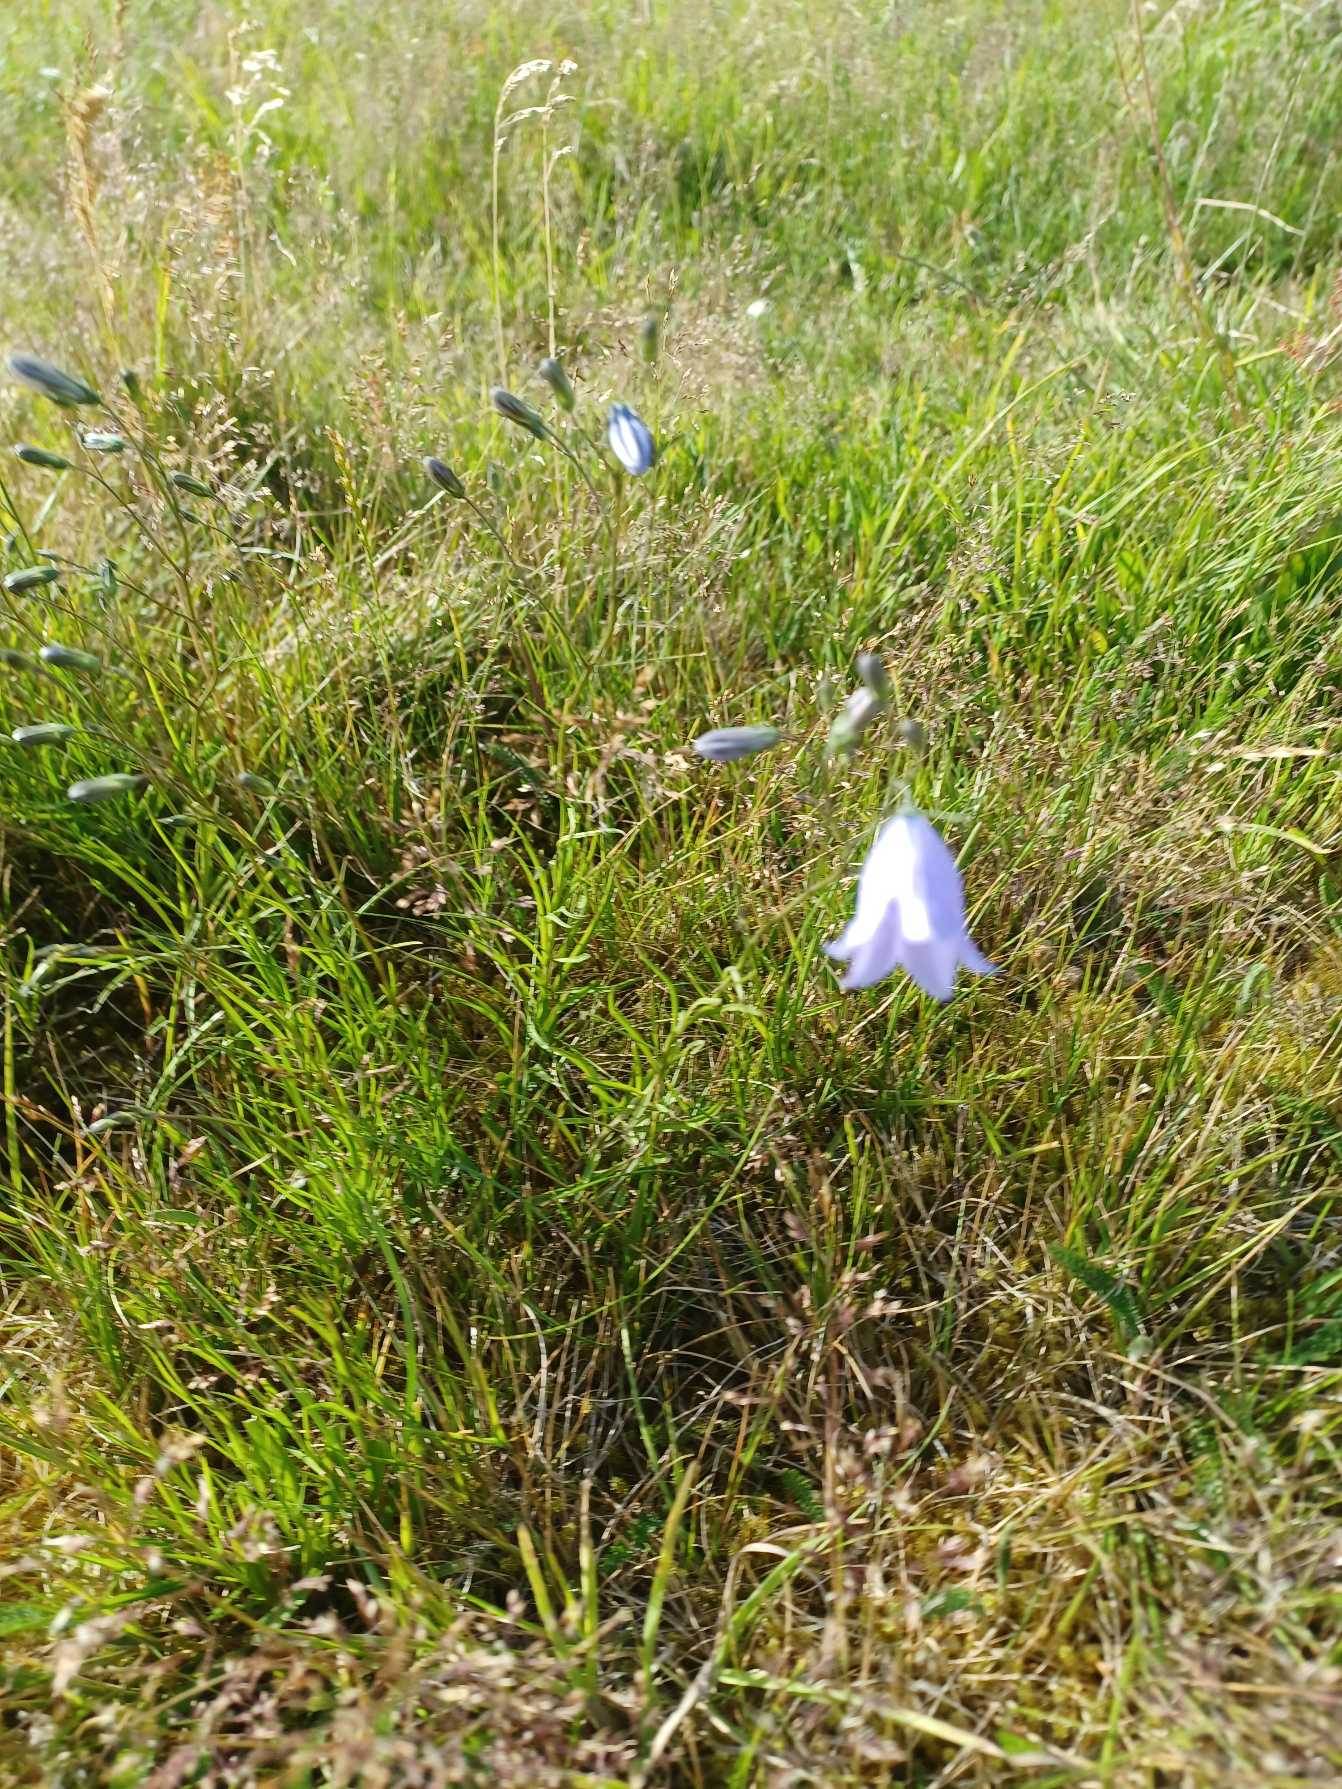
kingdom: Plantae
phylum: Tracheophyta
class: Magnoliopsida
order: Asterales
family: Campanulaceae
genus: Campanula
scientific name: Campanula rotundifolia
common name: Liden klokke
